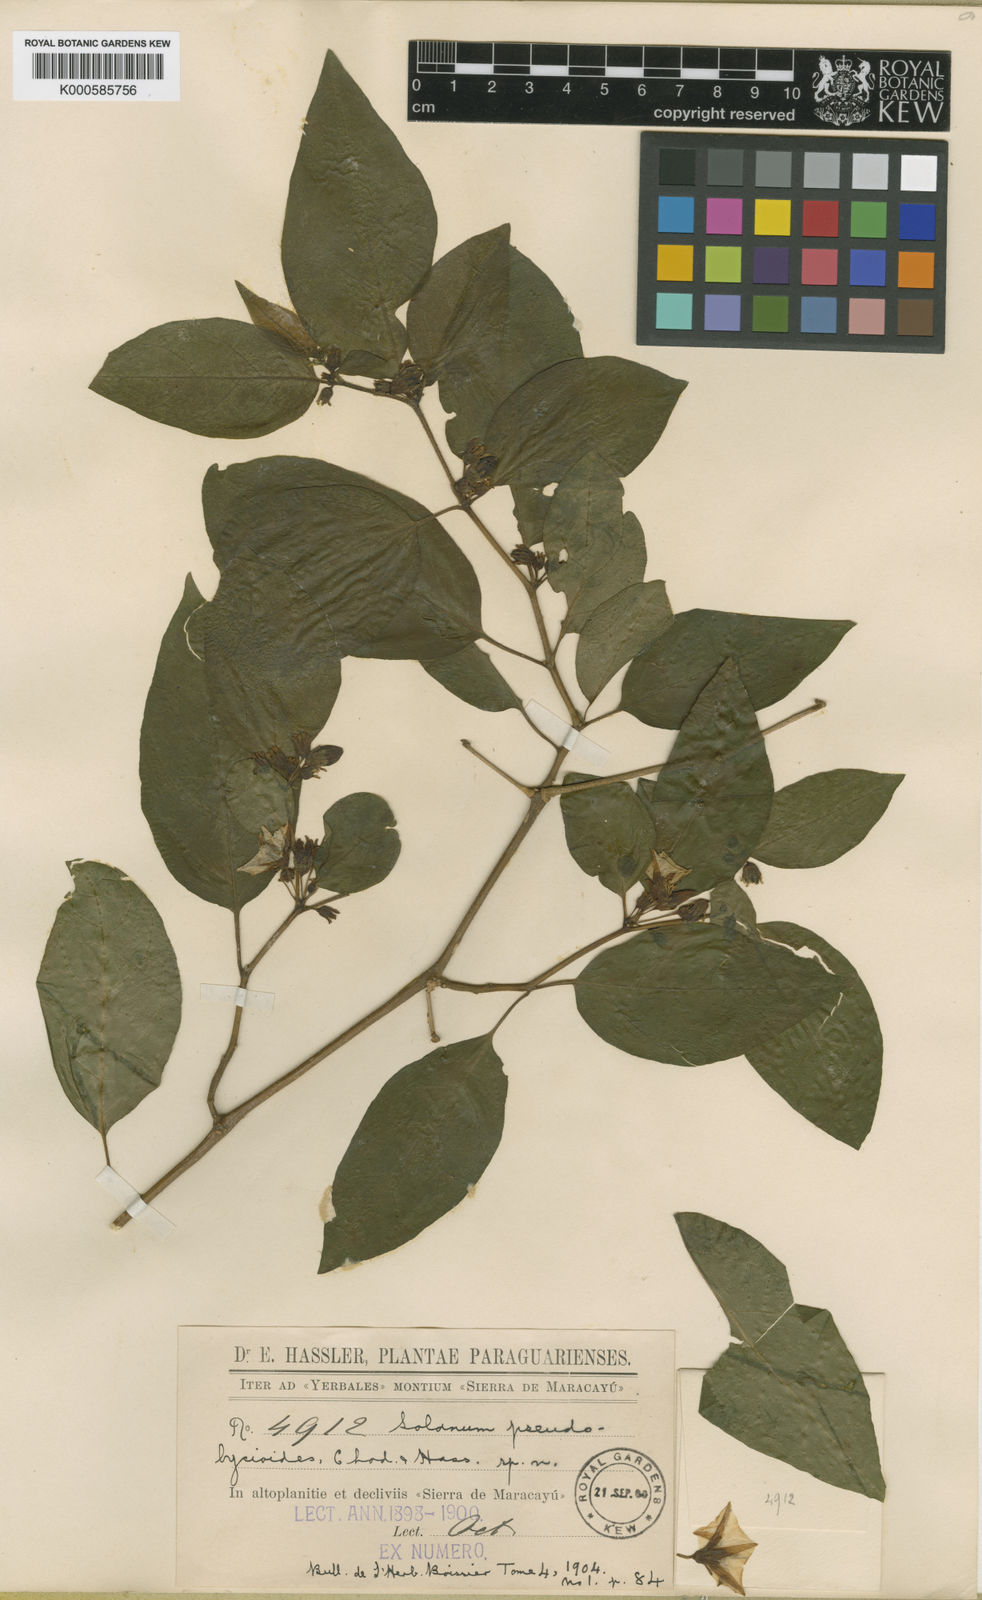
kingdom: Plantae
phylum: Tracheophyta
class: Magnoliopsida
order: Solanales
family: Solanaceae
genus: Lycianthes
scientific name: Lycianthes pauciflora
